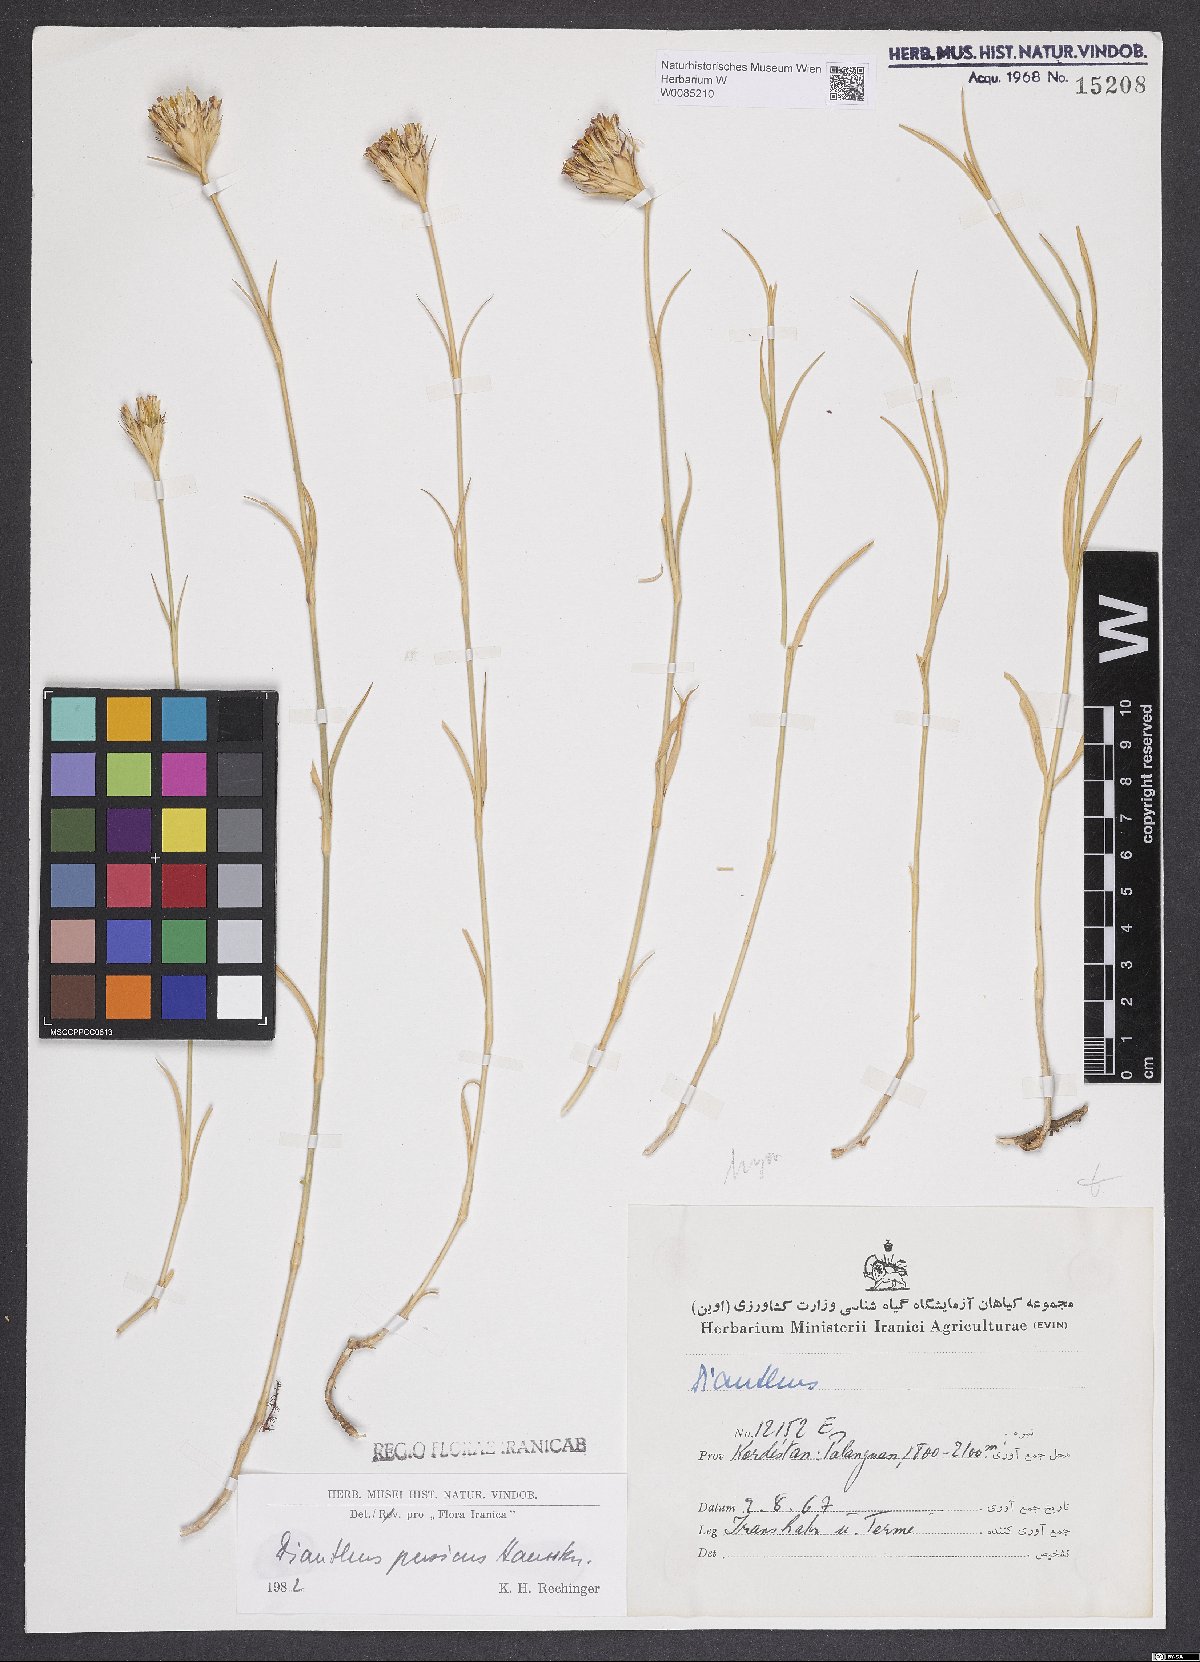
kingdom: Plantae
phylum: Tracheophyta
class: Magnoliopsida
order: Caryophyllales
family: Caryophyllaceae
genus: Dianthus
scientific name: Dianthus persicus
